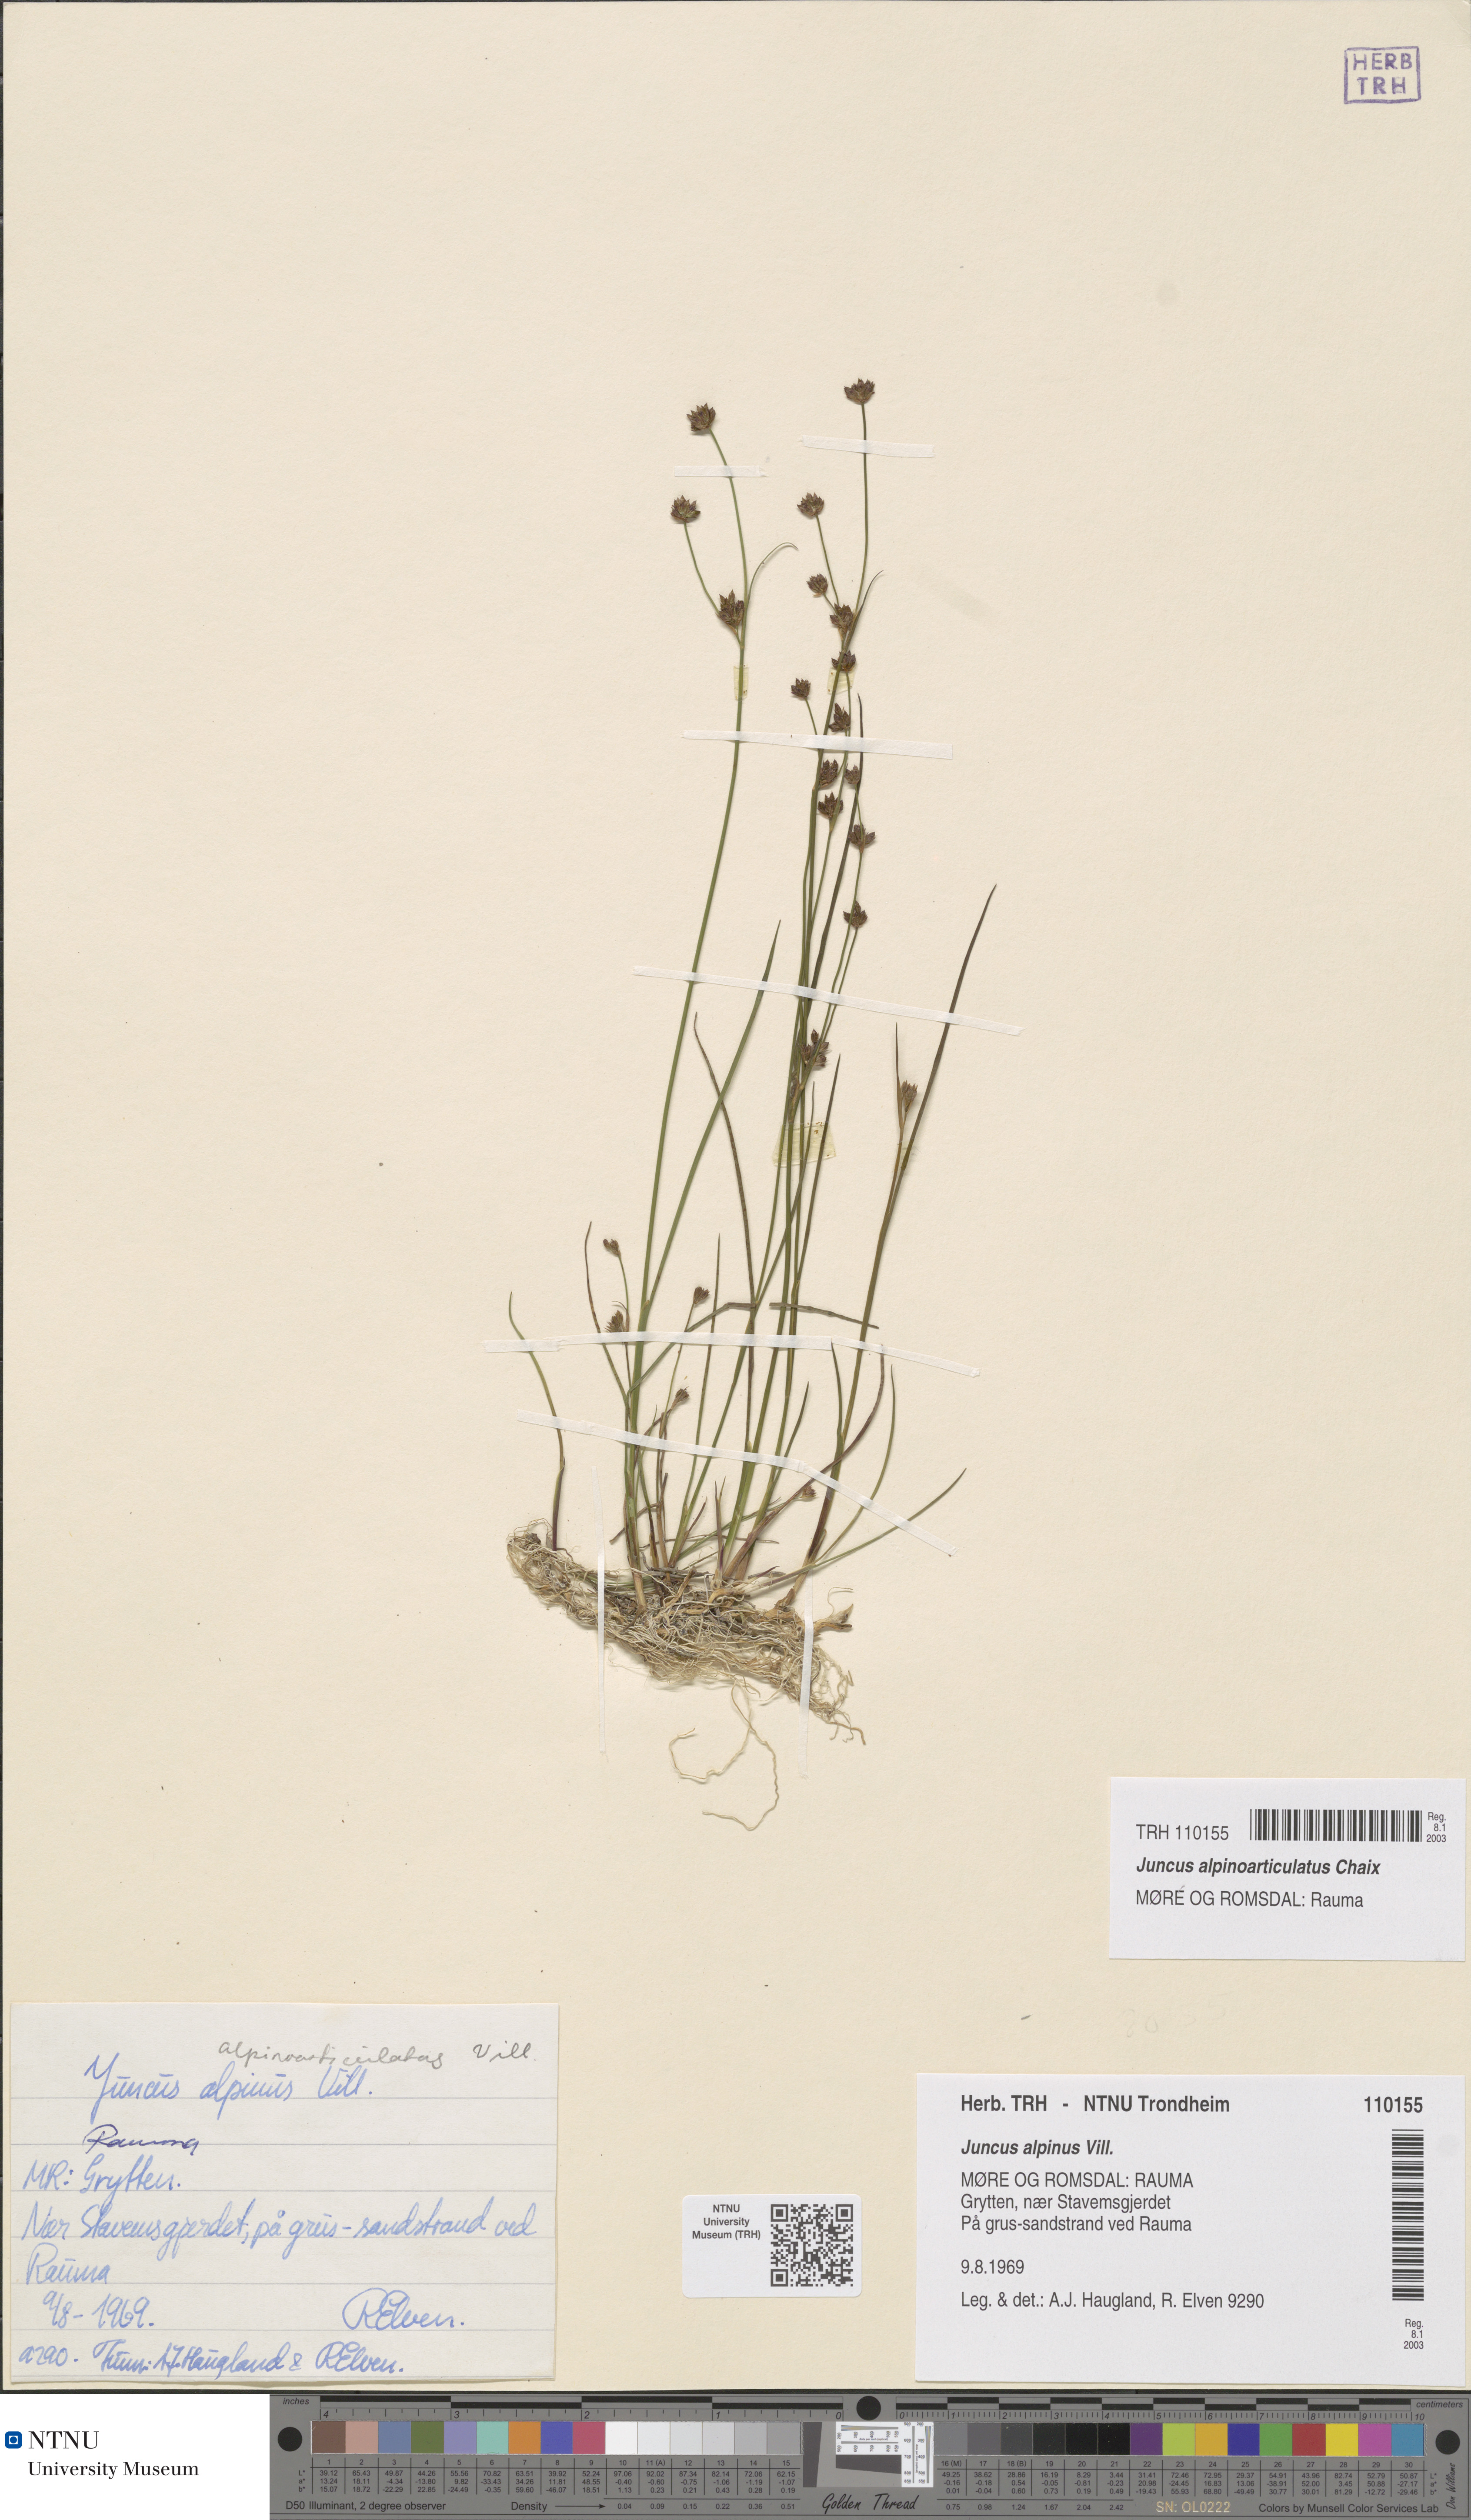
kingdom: Plantae
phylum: Tracheophyta
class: Liliopsida
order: Poales
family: Juncaceae
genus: Juncus
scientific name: Juncus alpinoarticulatus
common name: Alpine rush
